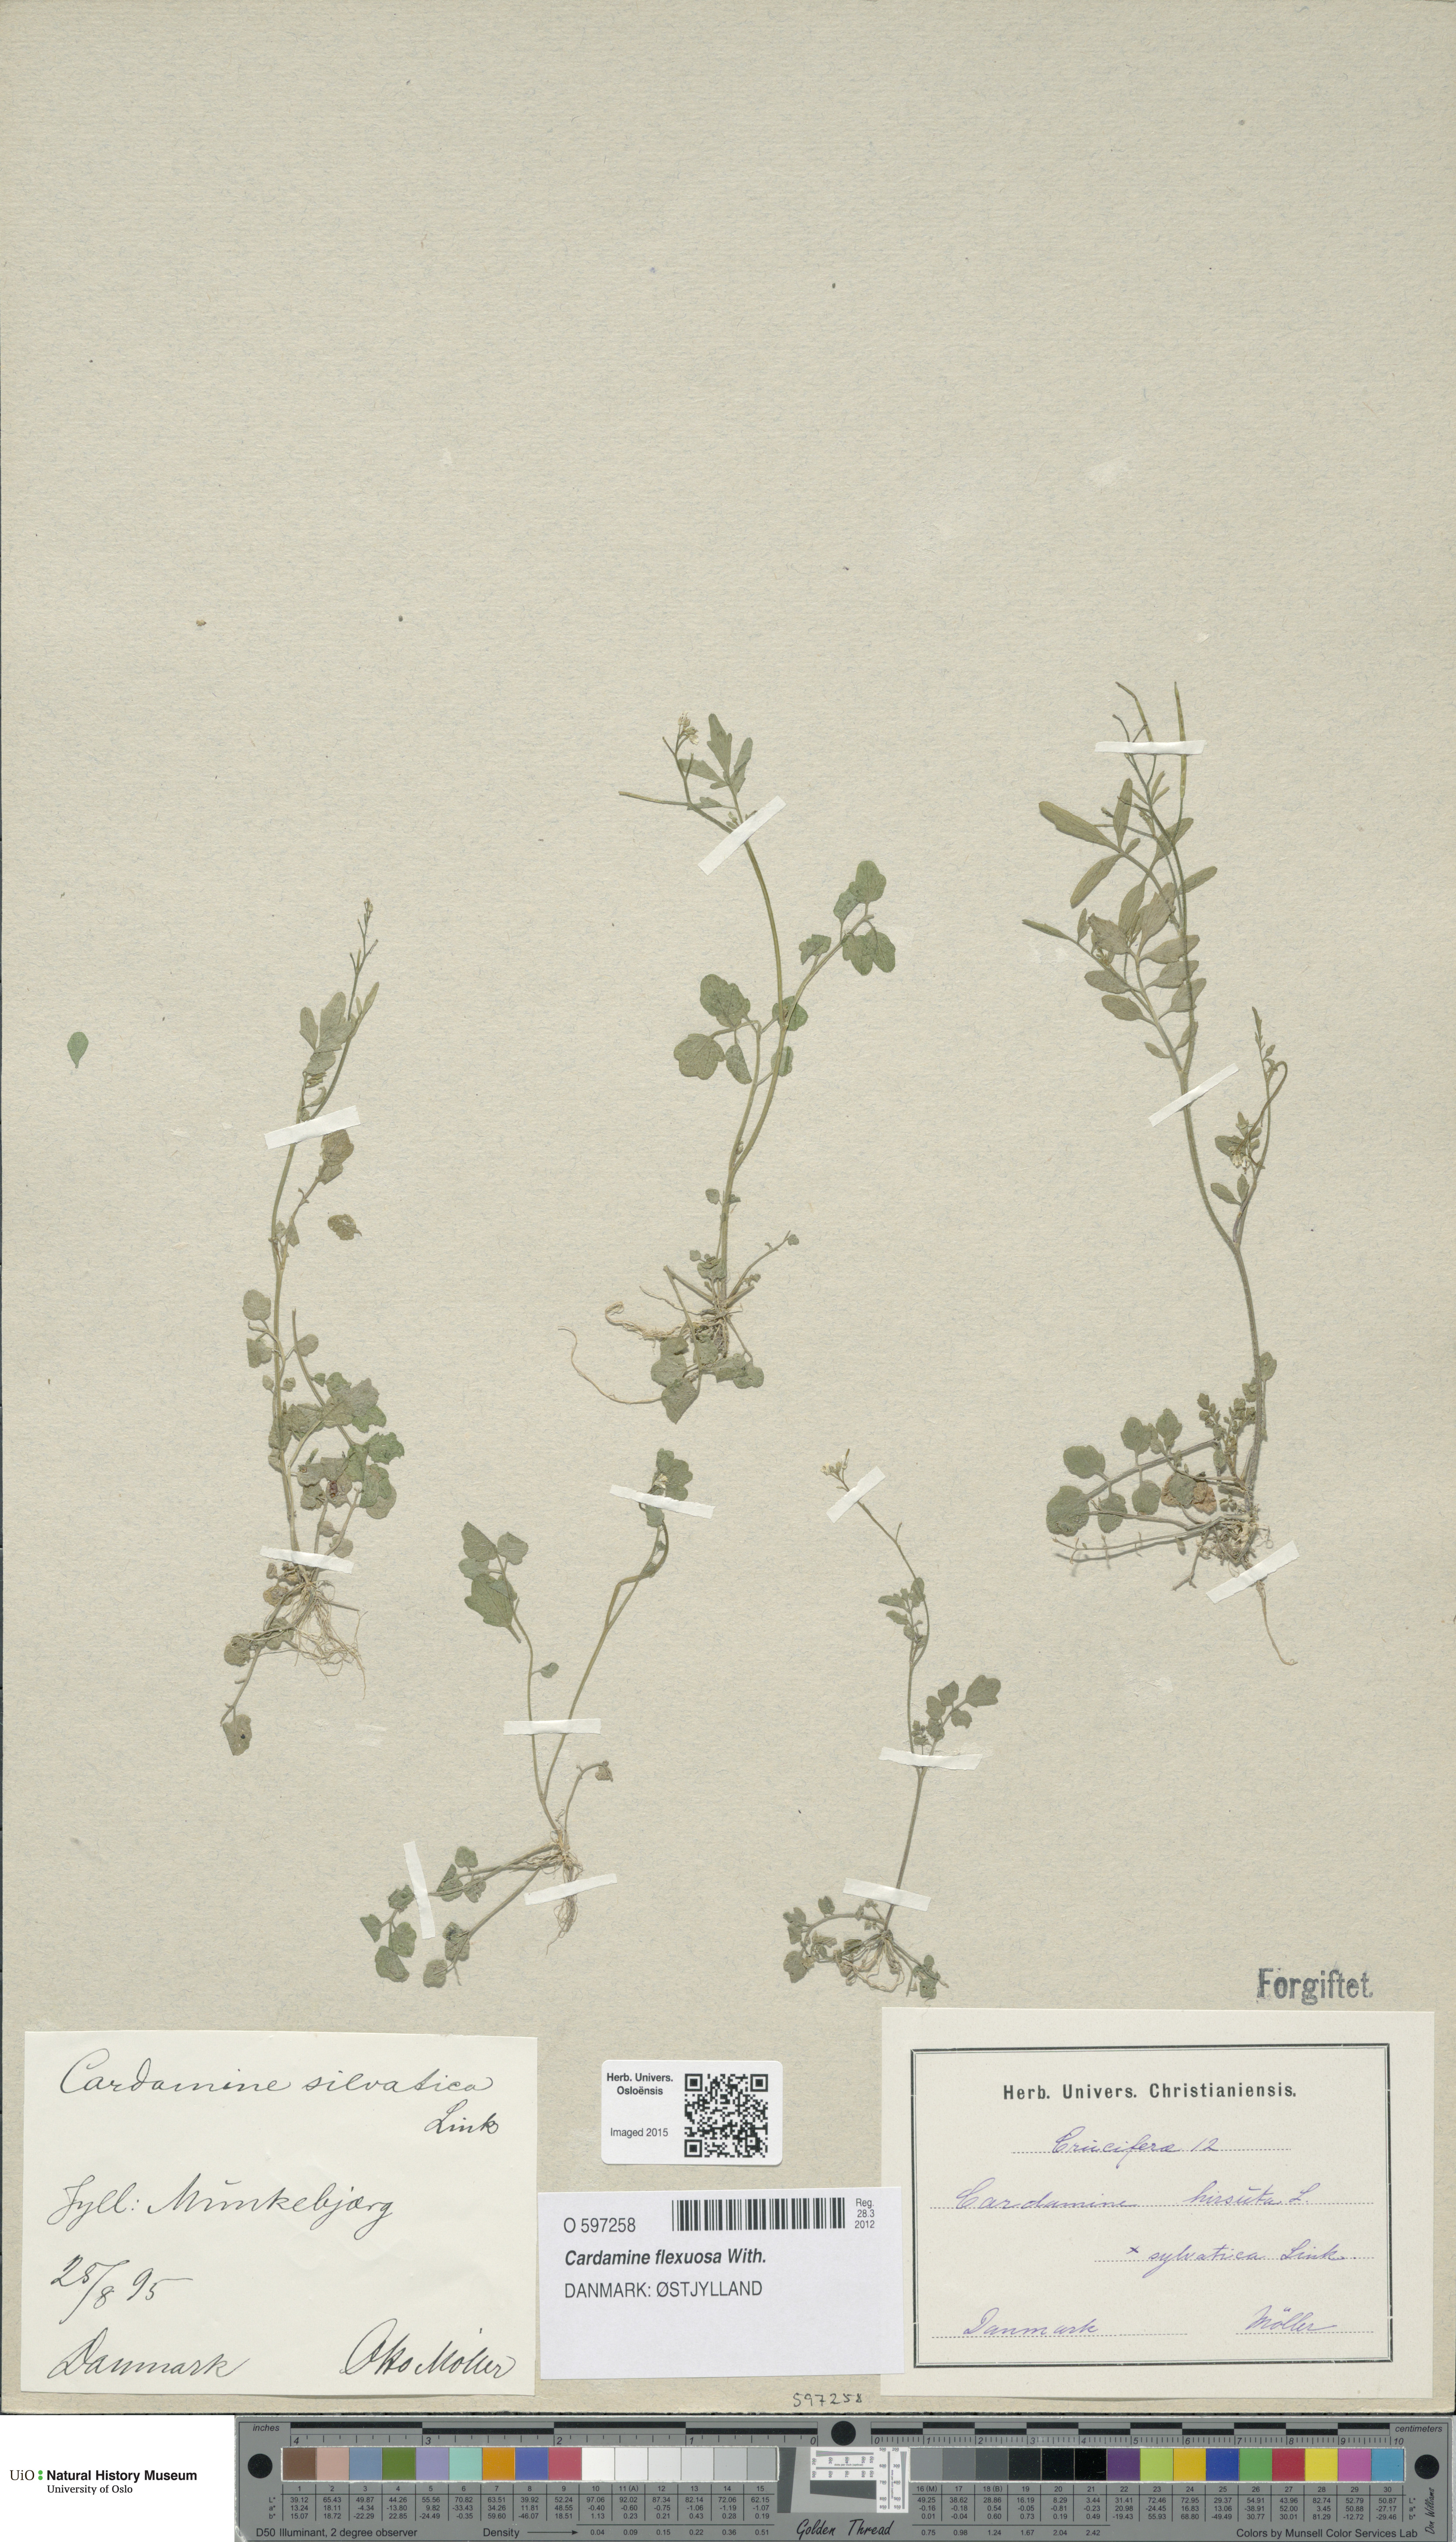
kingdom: Plantae
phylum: Tracheophyta
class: Magnoliopsida
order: Brassicales
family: Brassicaceae
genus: Cardamine
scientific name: Cardamine flexuosa
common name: Woodland bittercress
